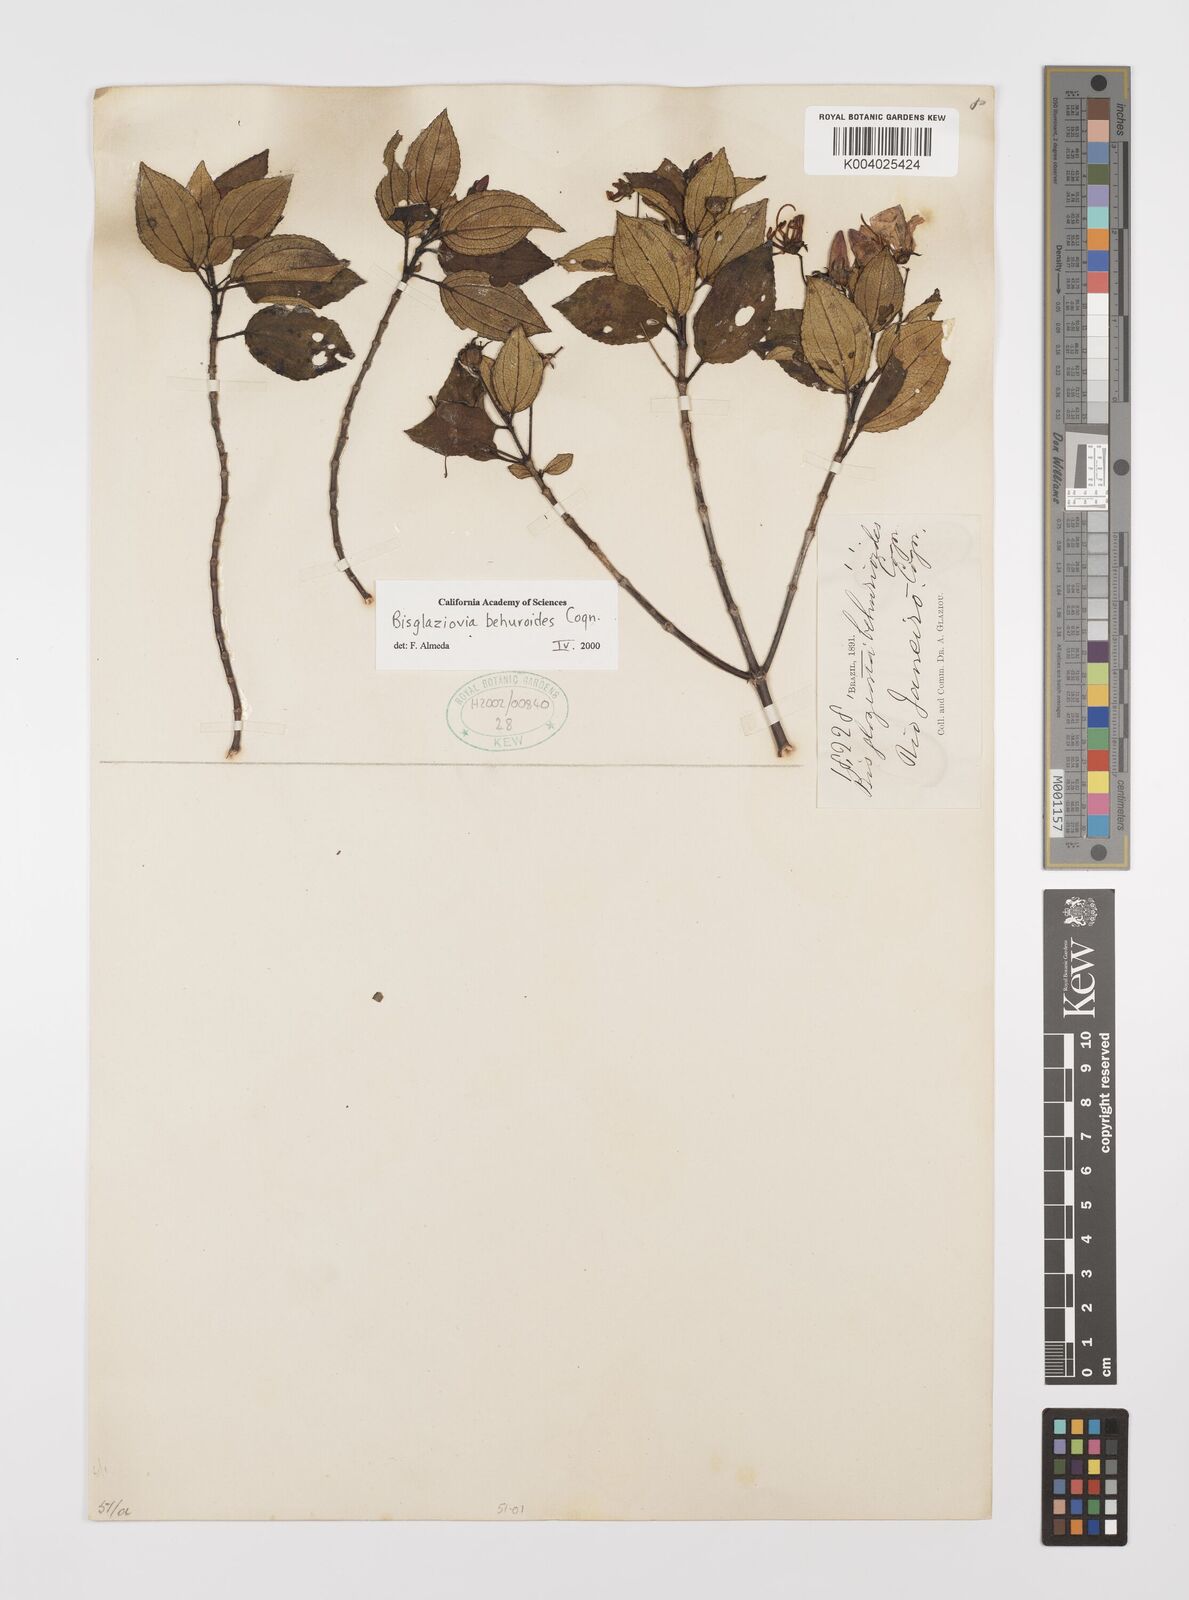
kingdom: Plantae
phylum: Tracheophyta
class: Magnoliopsida
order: Myrtales
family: Melastomataceae
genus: Huberia
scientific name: Huberia mourae
